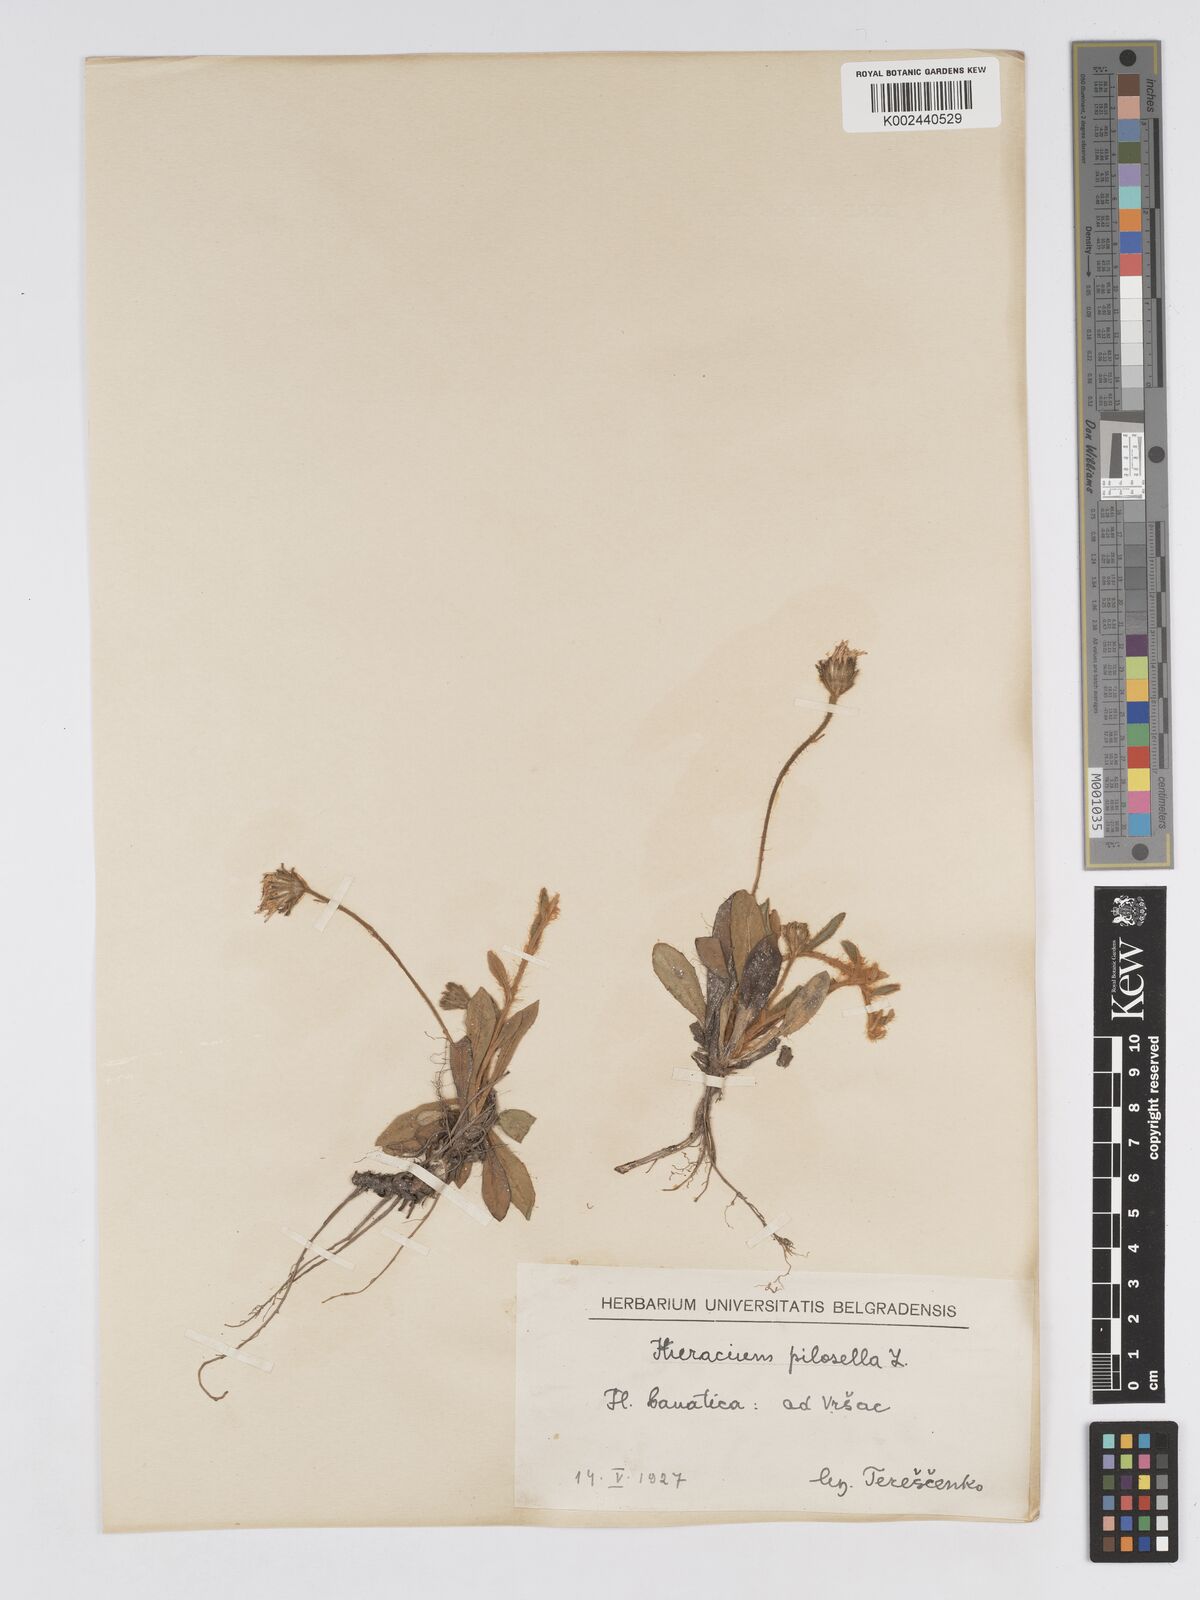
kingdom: Plantae
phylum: Tracheophyta
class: Magnoliopsida
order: Asterales
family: Asteraceae
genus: Pilosella
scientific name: Pilosella velutina
